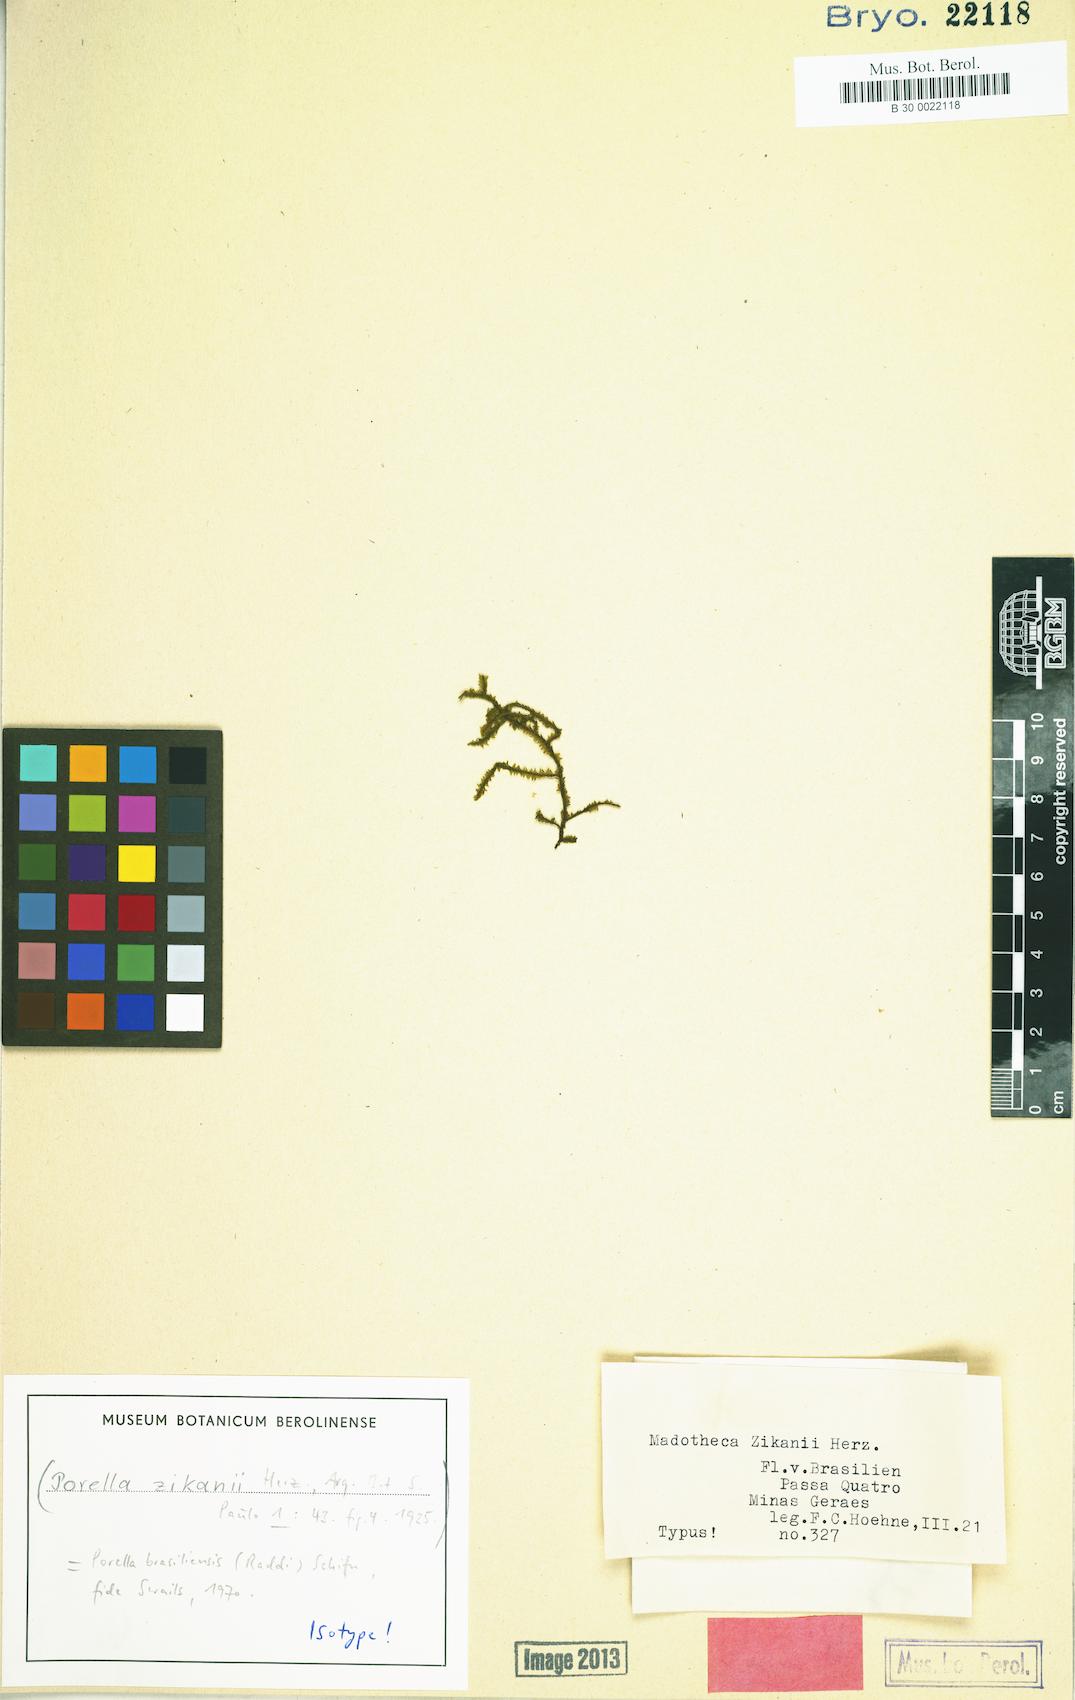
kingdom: Plantae
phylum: Marchantiophyta
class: Jungermanniopsida
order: Porellales
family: Porellaceae
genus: Porella
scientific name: Porella brasiliensis
